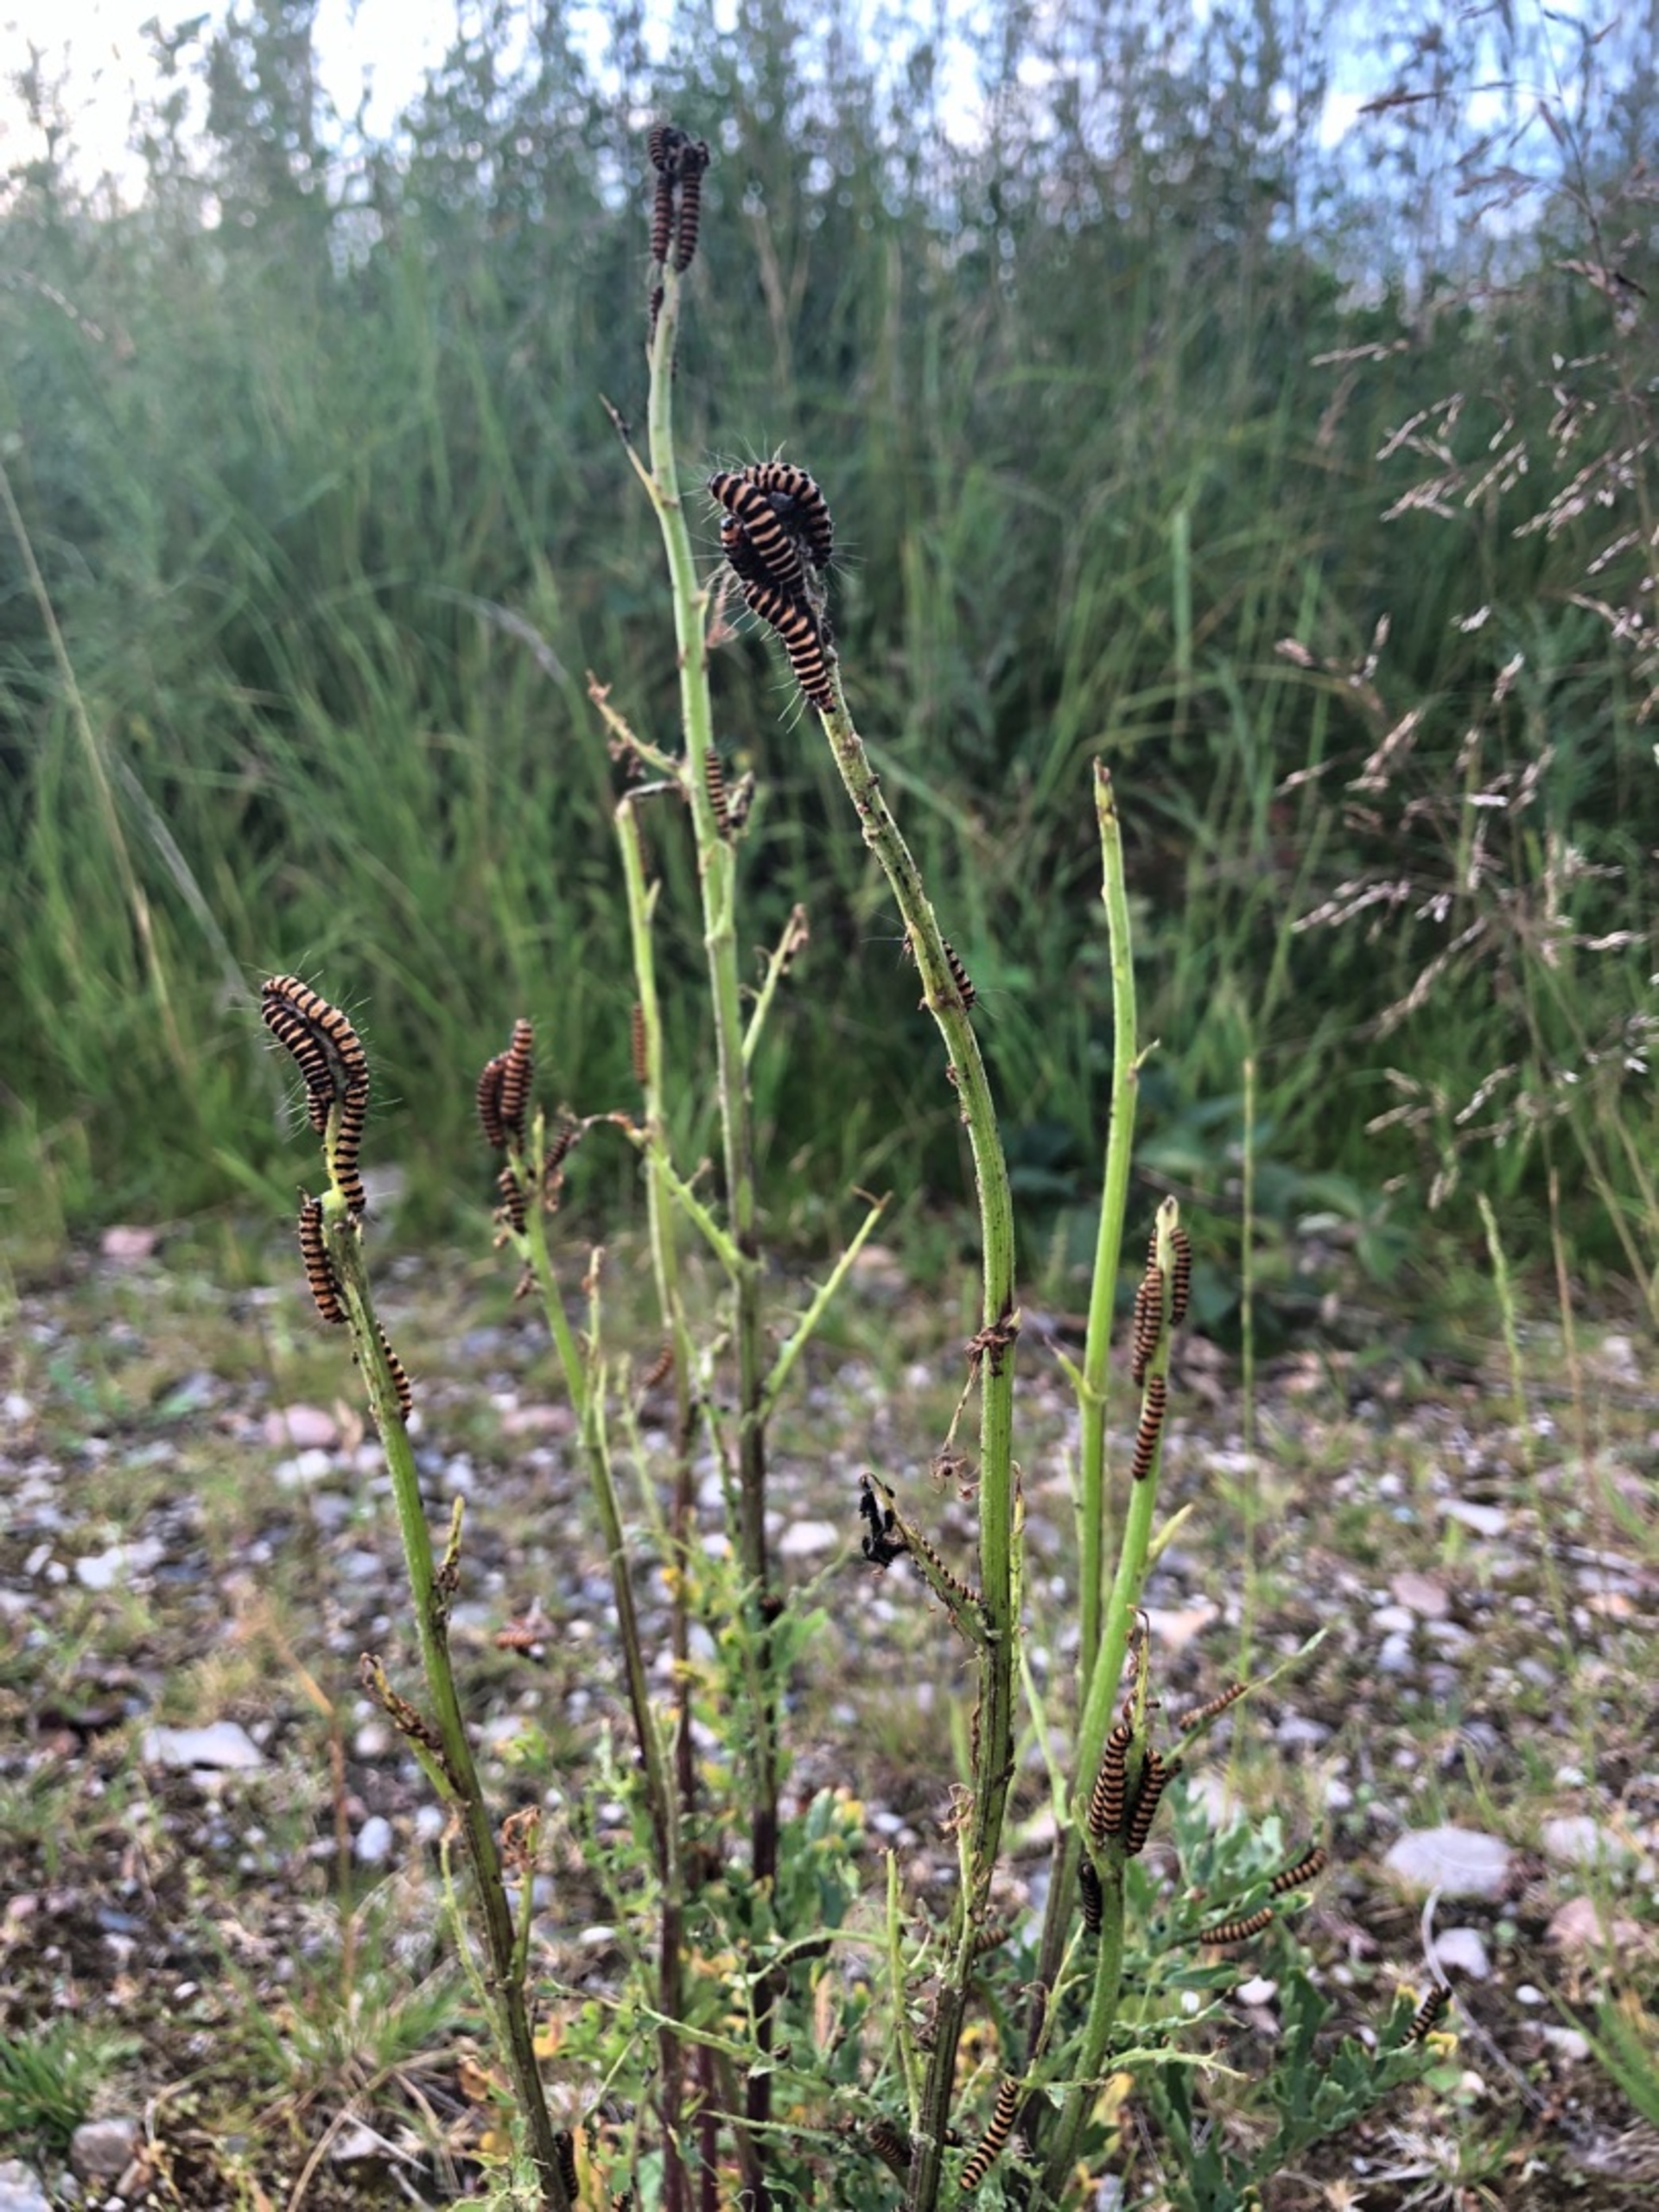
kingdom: Animalia
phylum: Arthropoda
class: Insecta
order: Lepidoptera
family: Erebidae
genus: Tyria
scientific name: Tyria jacobaeae
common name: Blodplet
